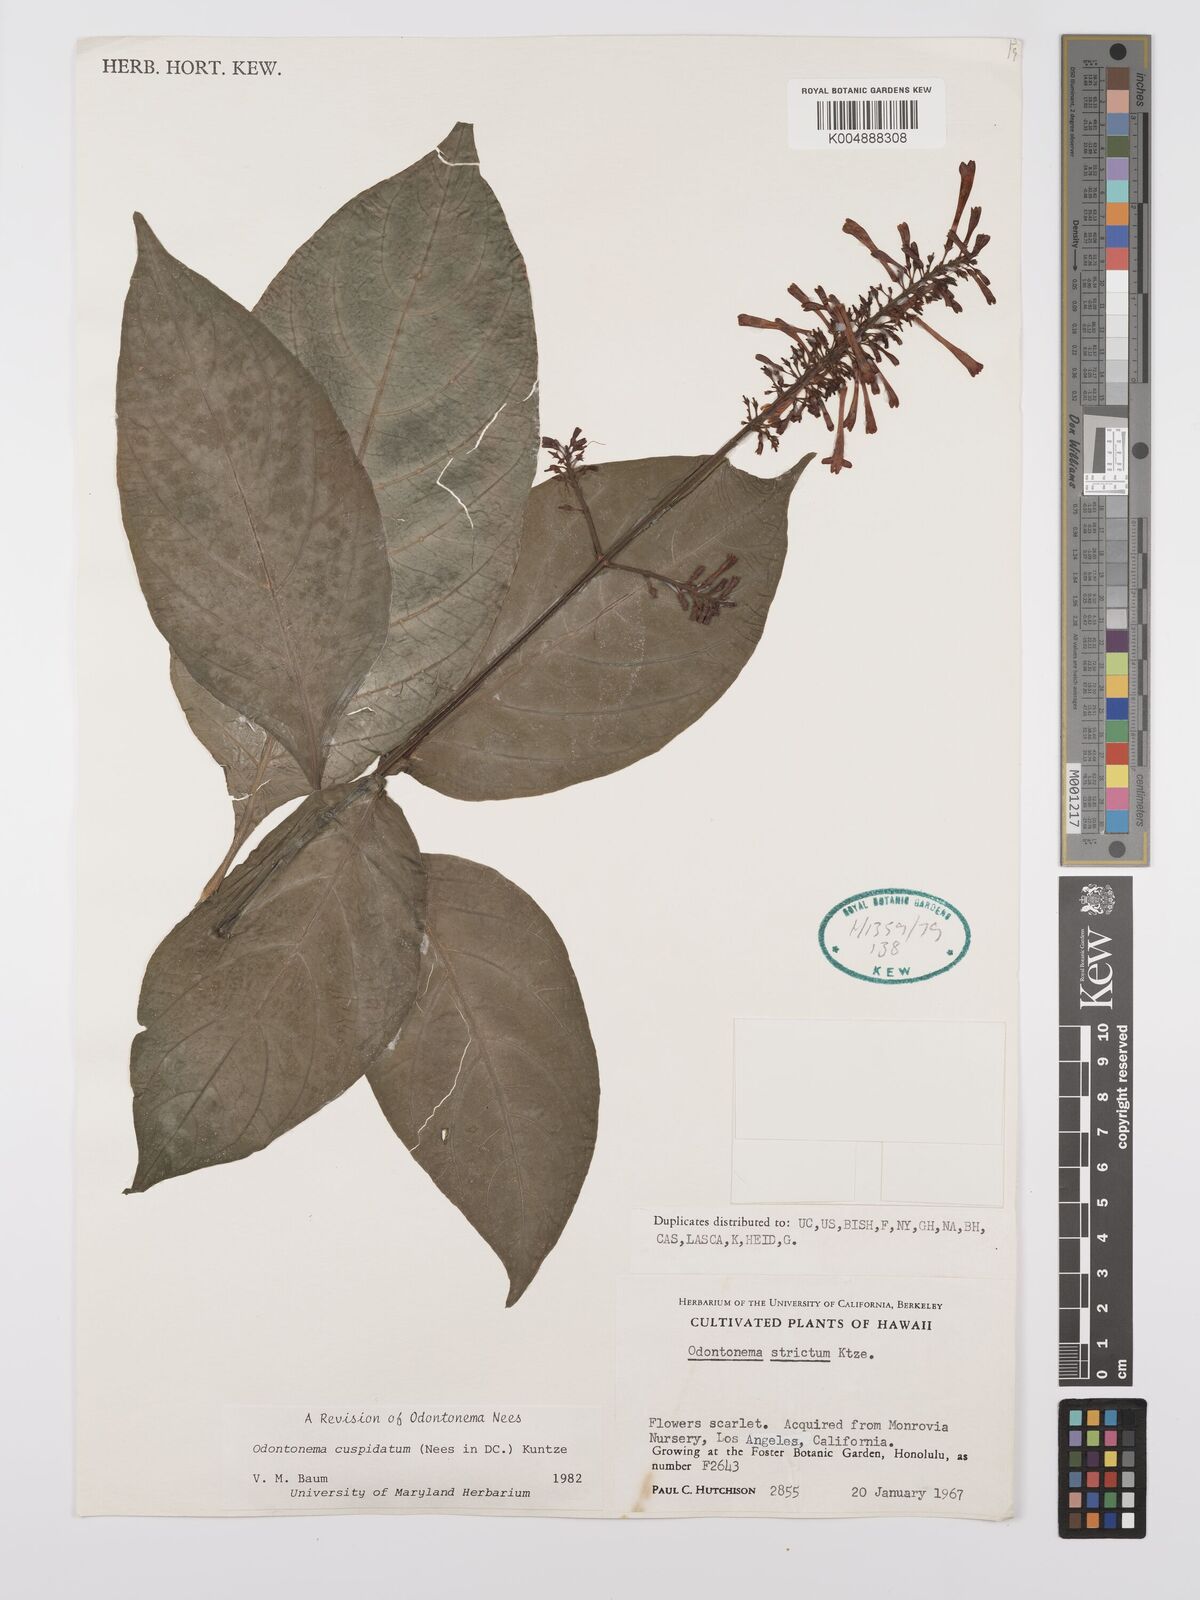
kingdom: Plantae
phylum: Tracheophyta
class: Magnoliopsida
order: Lamiales
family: Acanthaceae
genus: Odontonema
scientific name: Odontonema cuspidatum
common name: Mottled toothedthread
